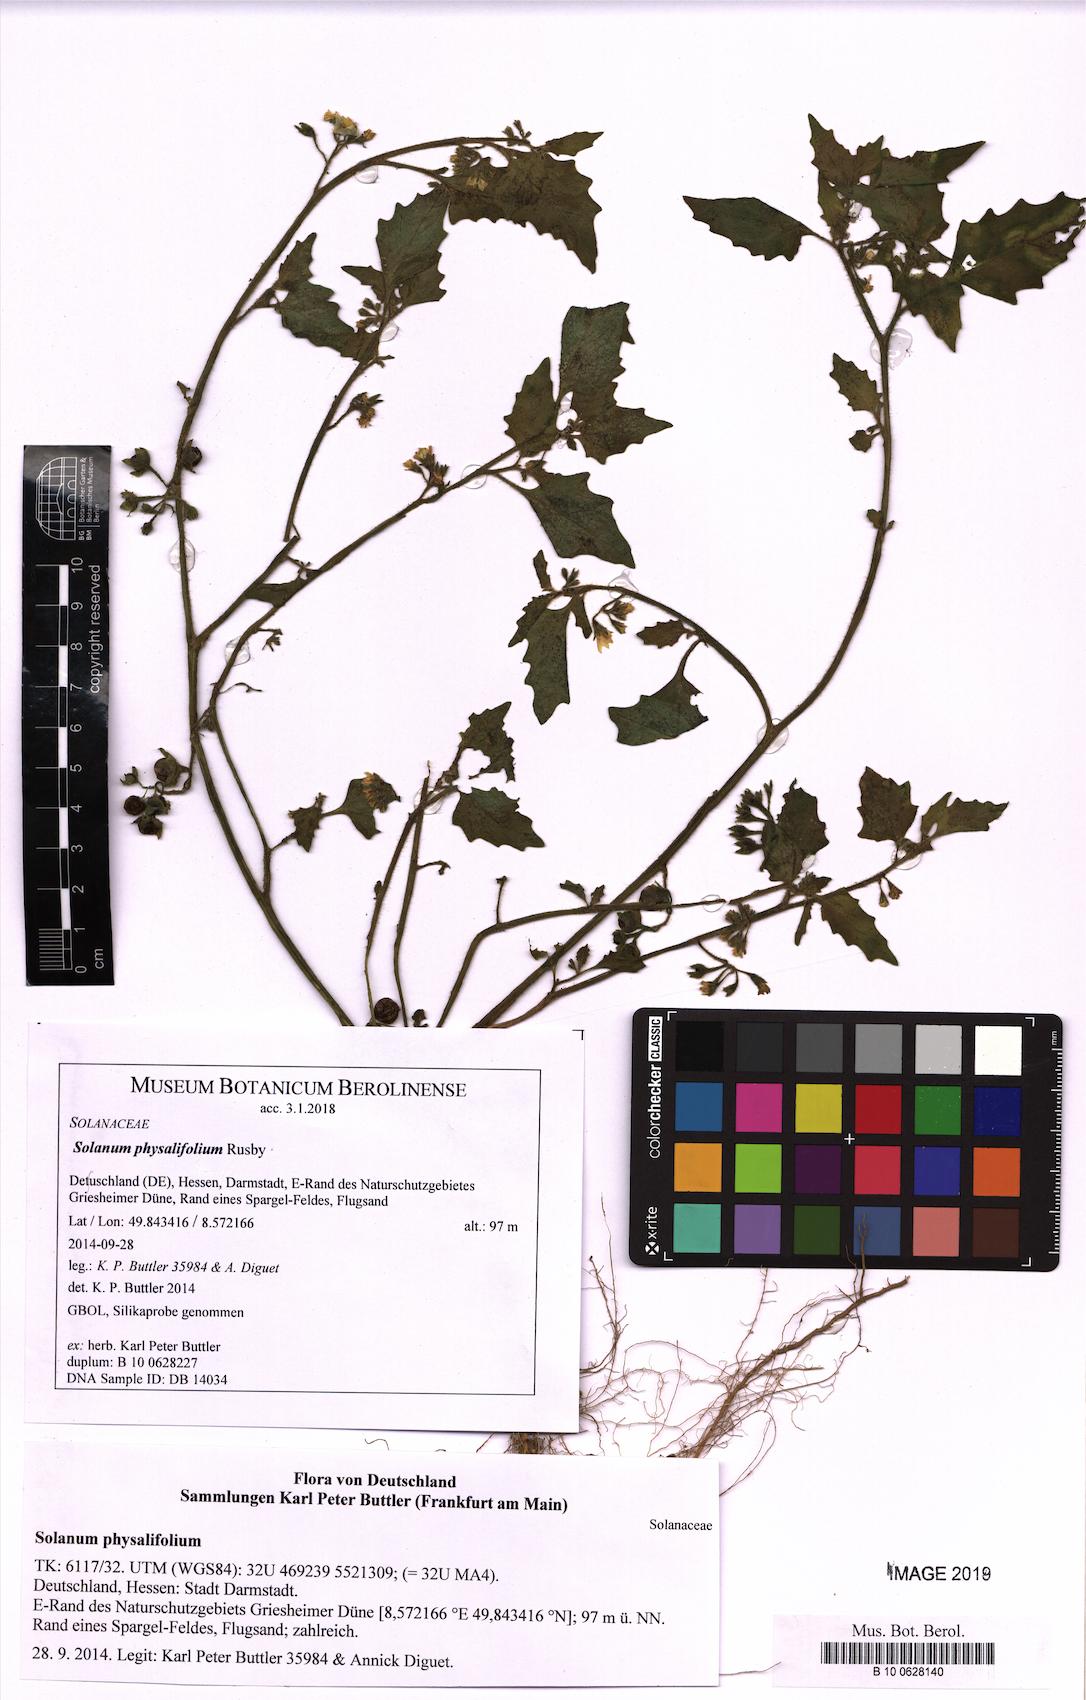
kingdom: Plantae
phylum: Tracheophyta
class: Magnoliopsida
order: Solanales
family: Solanaceae
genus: Solanum
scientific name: Solanum physalifolium
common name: Green nightshade
